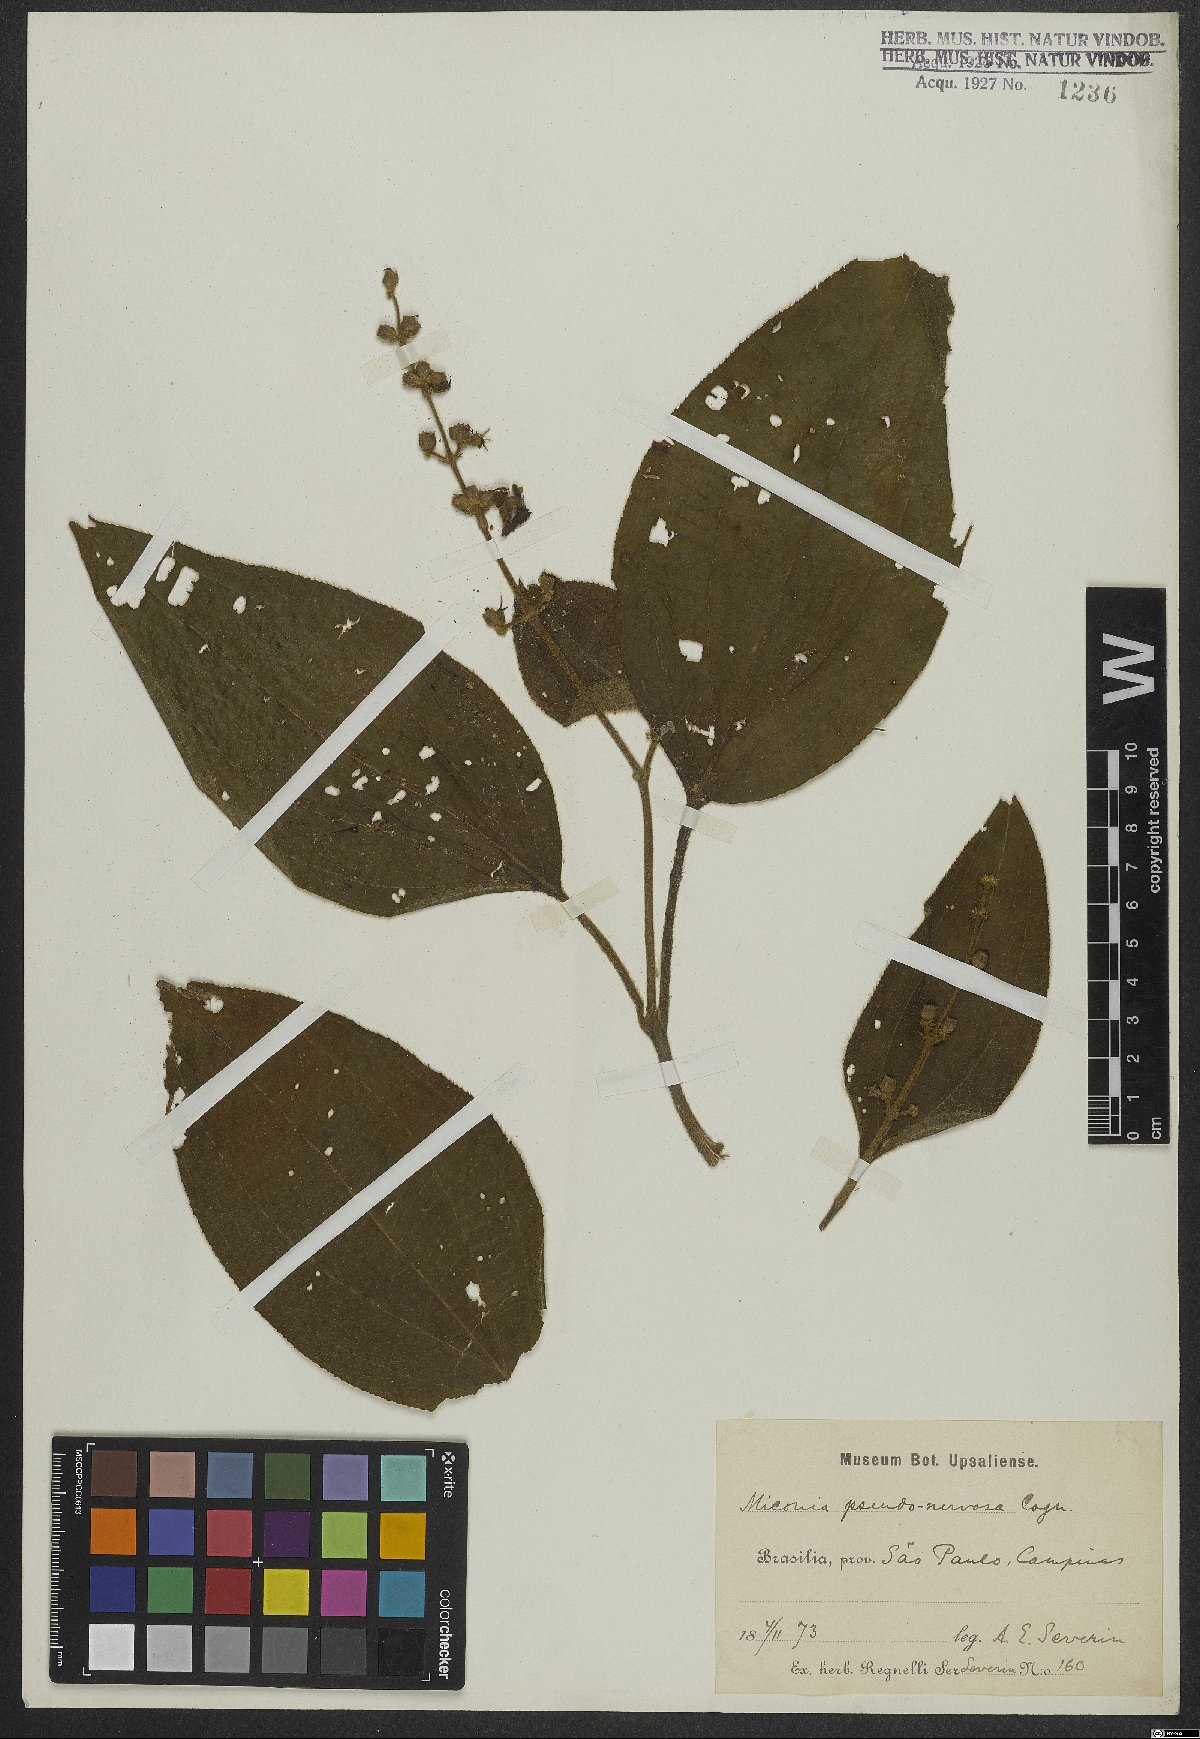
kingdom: Plantae
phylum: Tracheophyta
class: Magnoliopsida
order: Myrtales
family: Melastomataceae
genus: Miconia
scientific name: Miconia pseudonervosa
